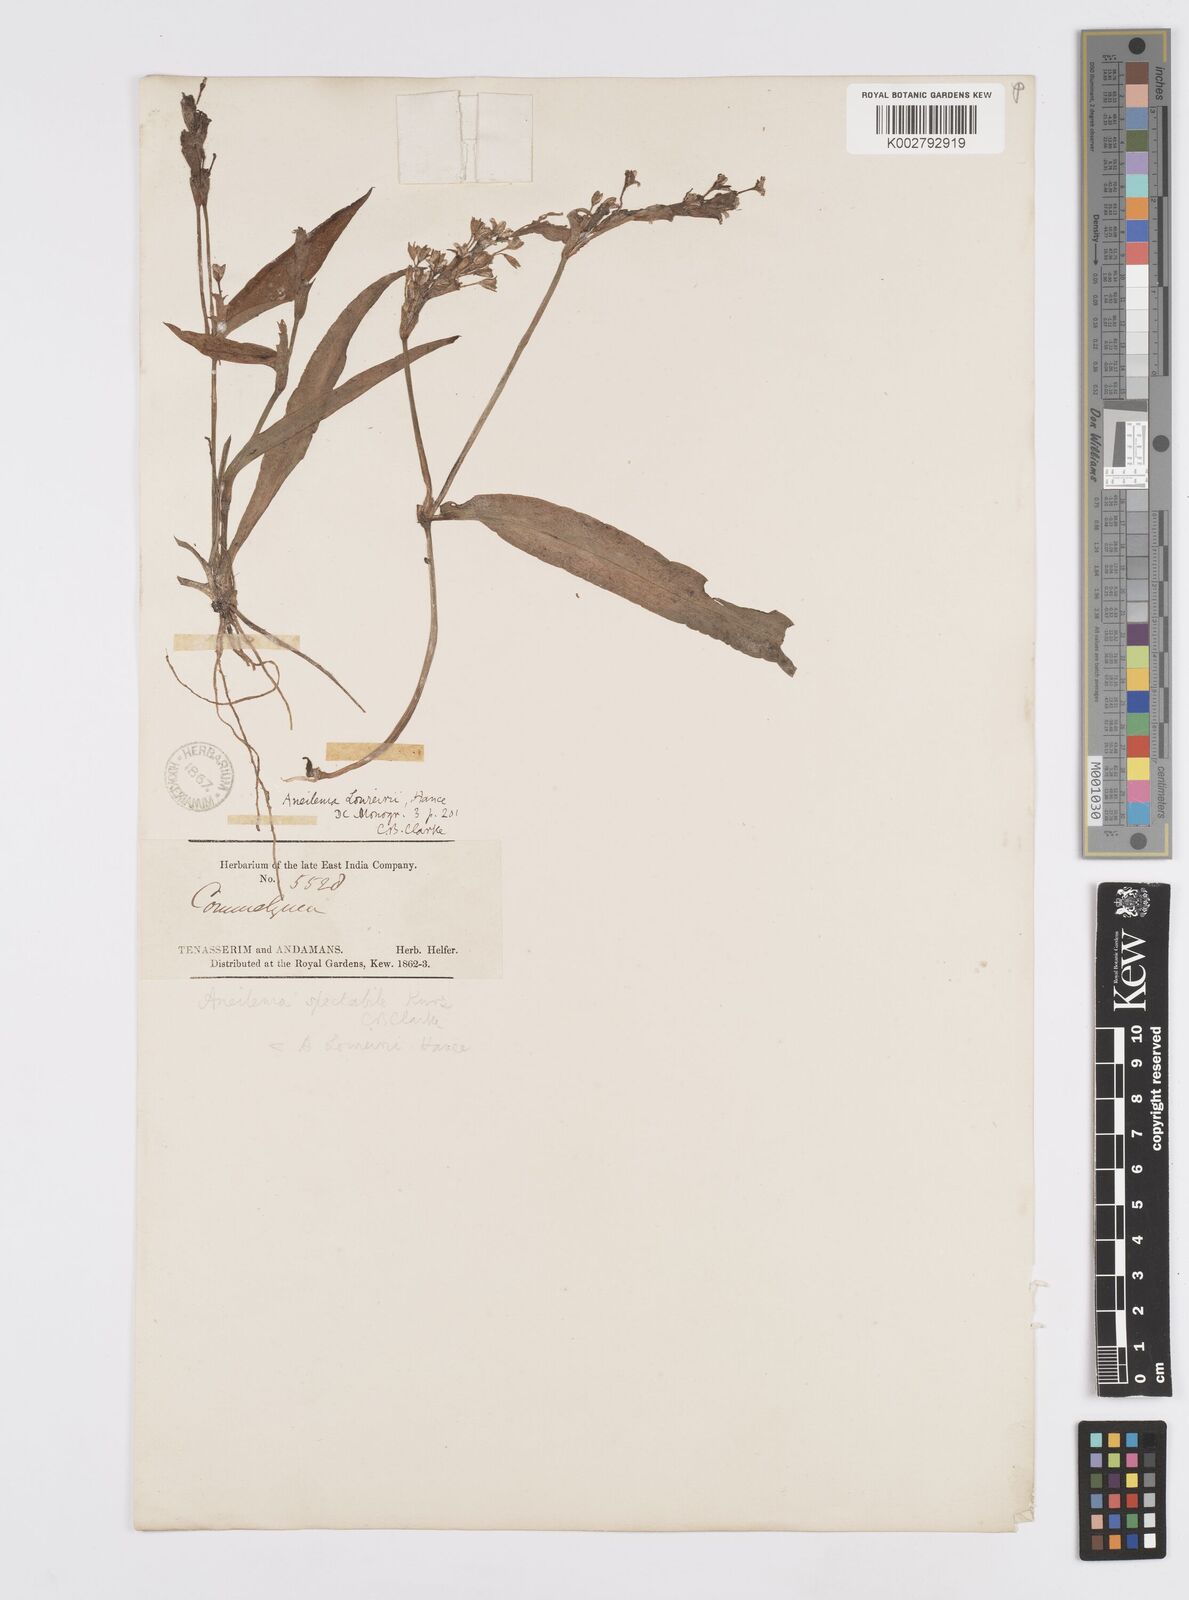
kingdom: Plantae
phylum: Tracheophyta
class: Liliopsida
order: Commelinales
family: Commelinaceae
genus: Murdannia
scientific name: Murdannia edulis
